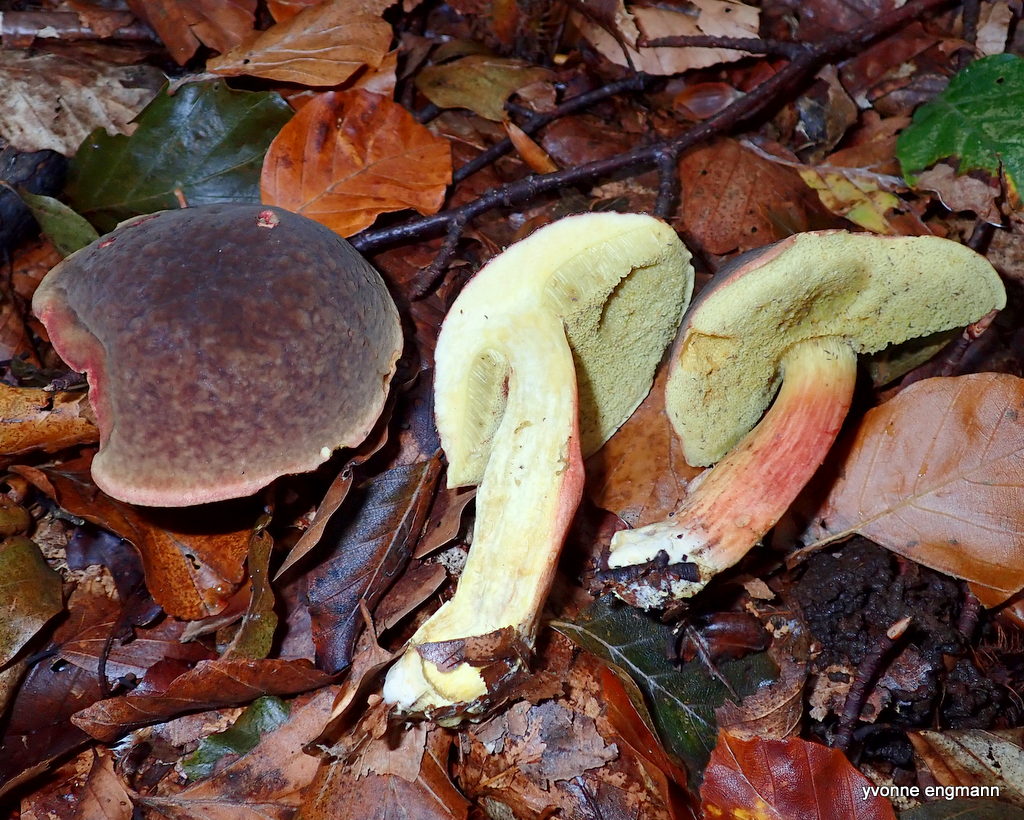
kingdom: Fungi
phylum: Basidiomycota
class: Agaricomycetes
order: Boletales
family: Boletaceae
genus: Xerocomellus
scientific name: Xerocomellus pruinatus
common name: dugget rørhat
